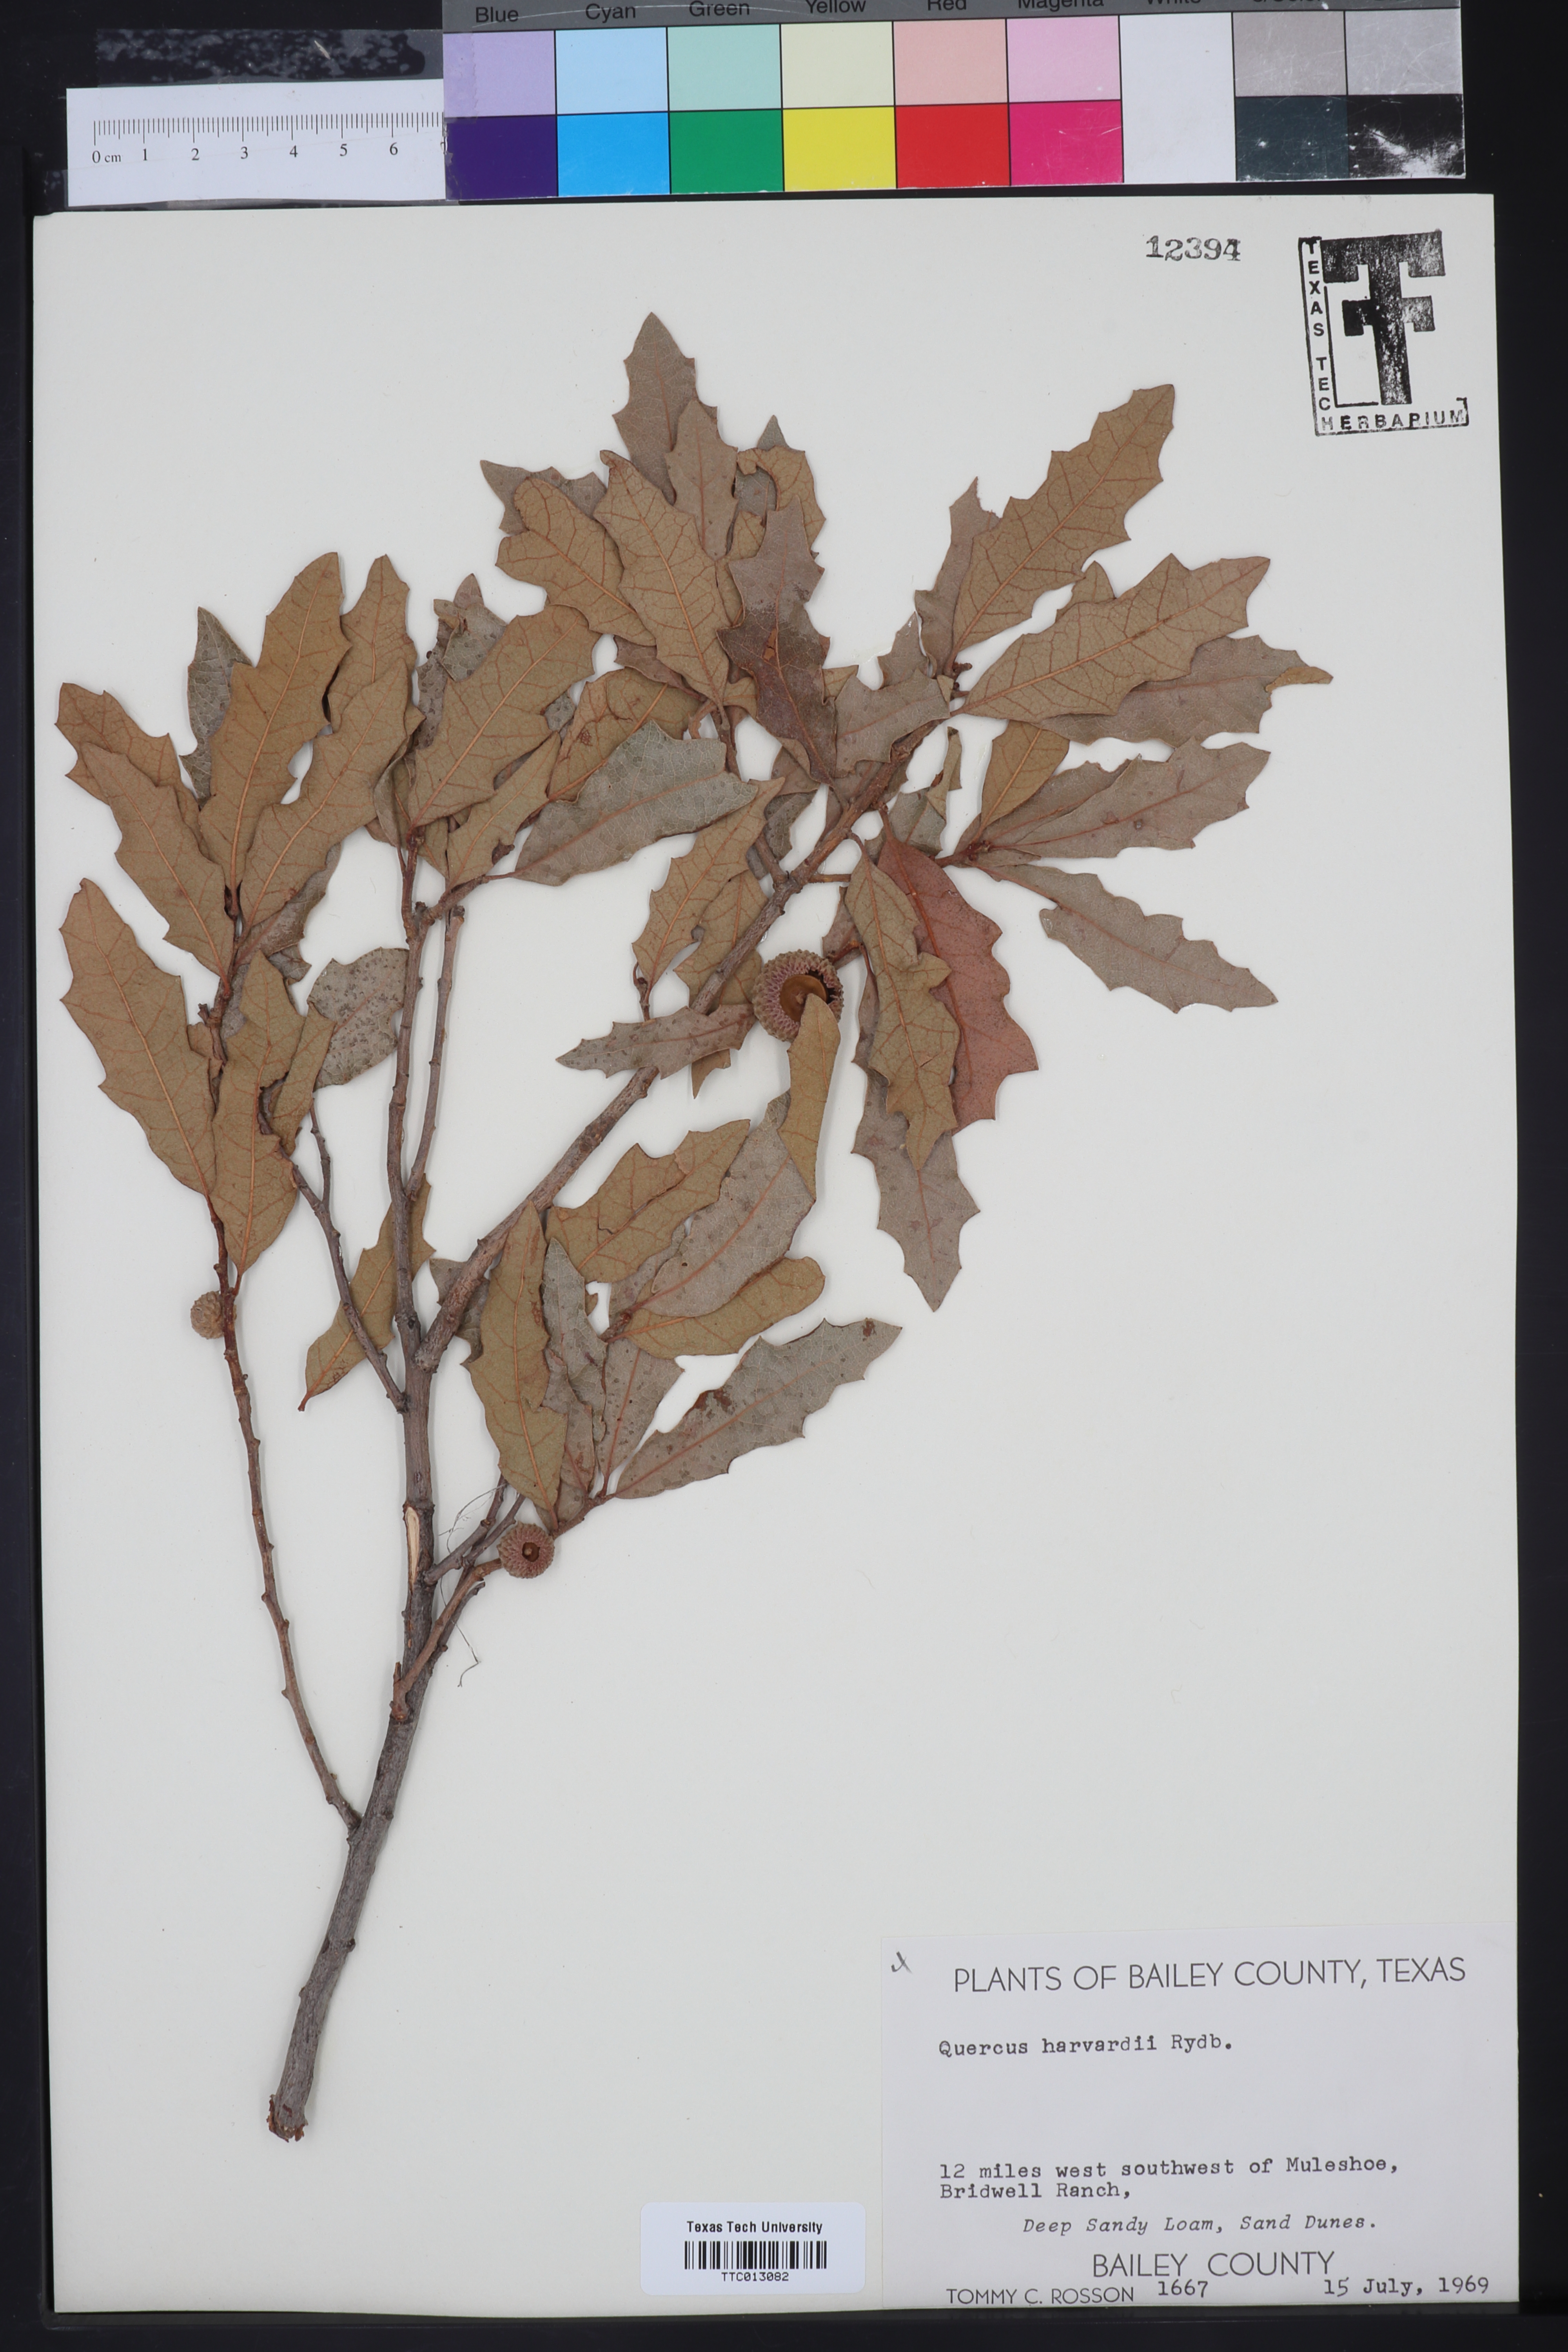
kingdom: Plantae
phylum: Tracheophyta
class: Magnoliopsida
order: Fagales
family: Fagaceae
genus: Quercus
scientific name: Quercus havardii
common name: Shinnery oak
